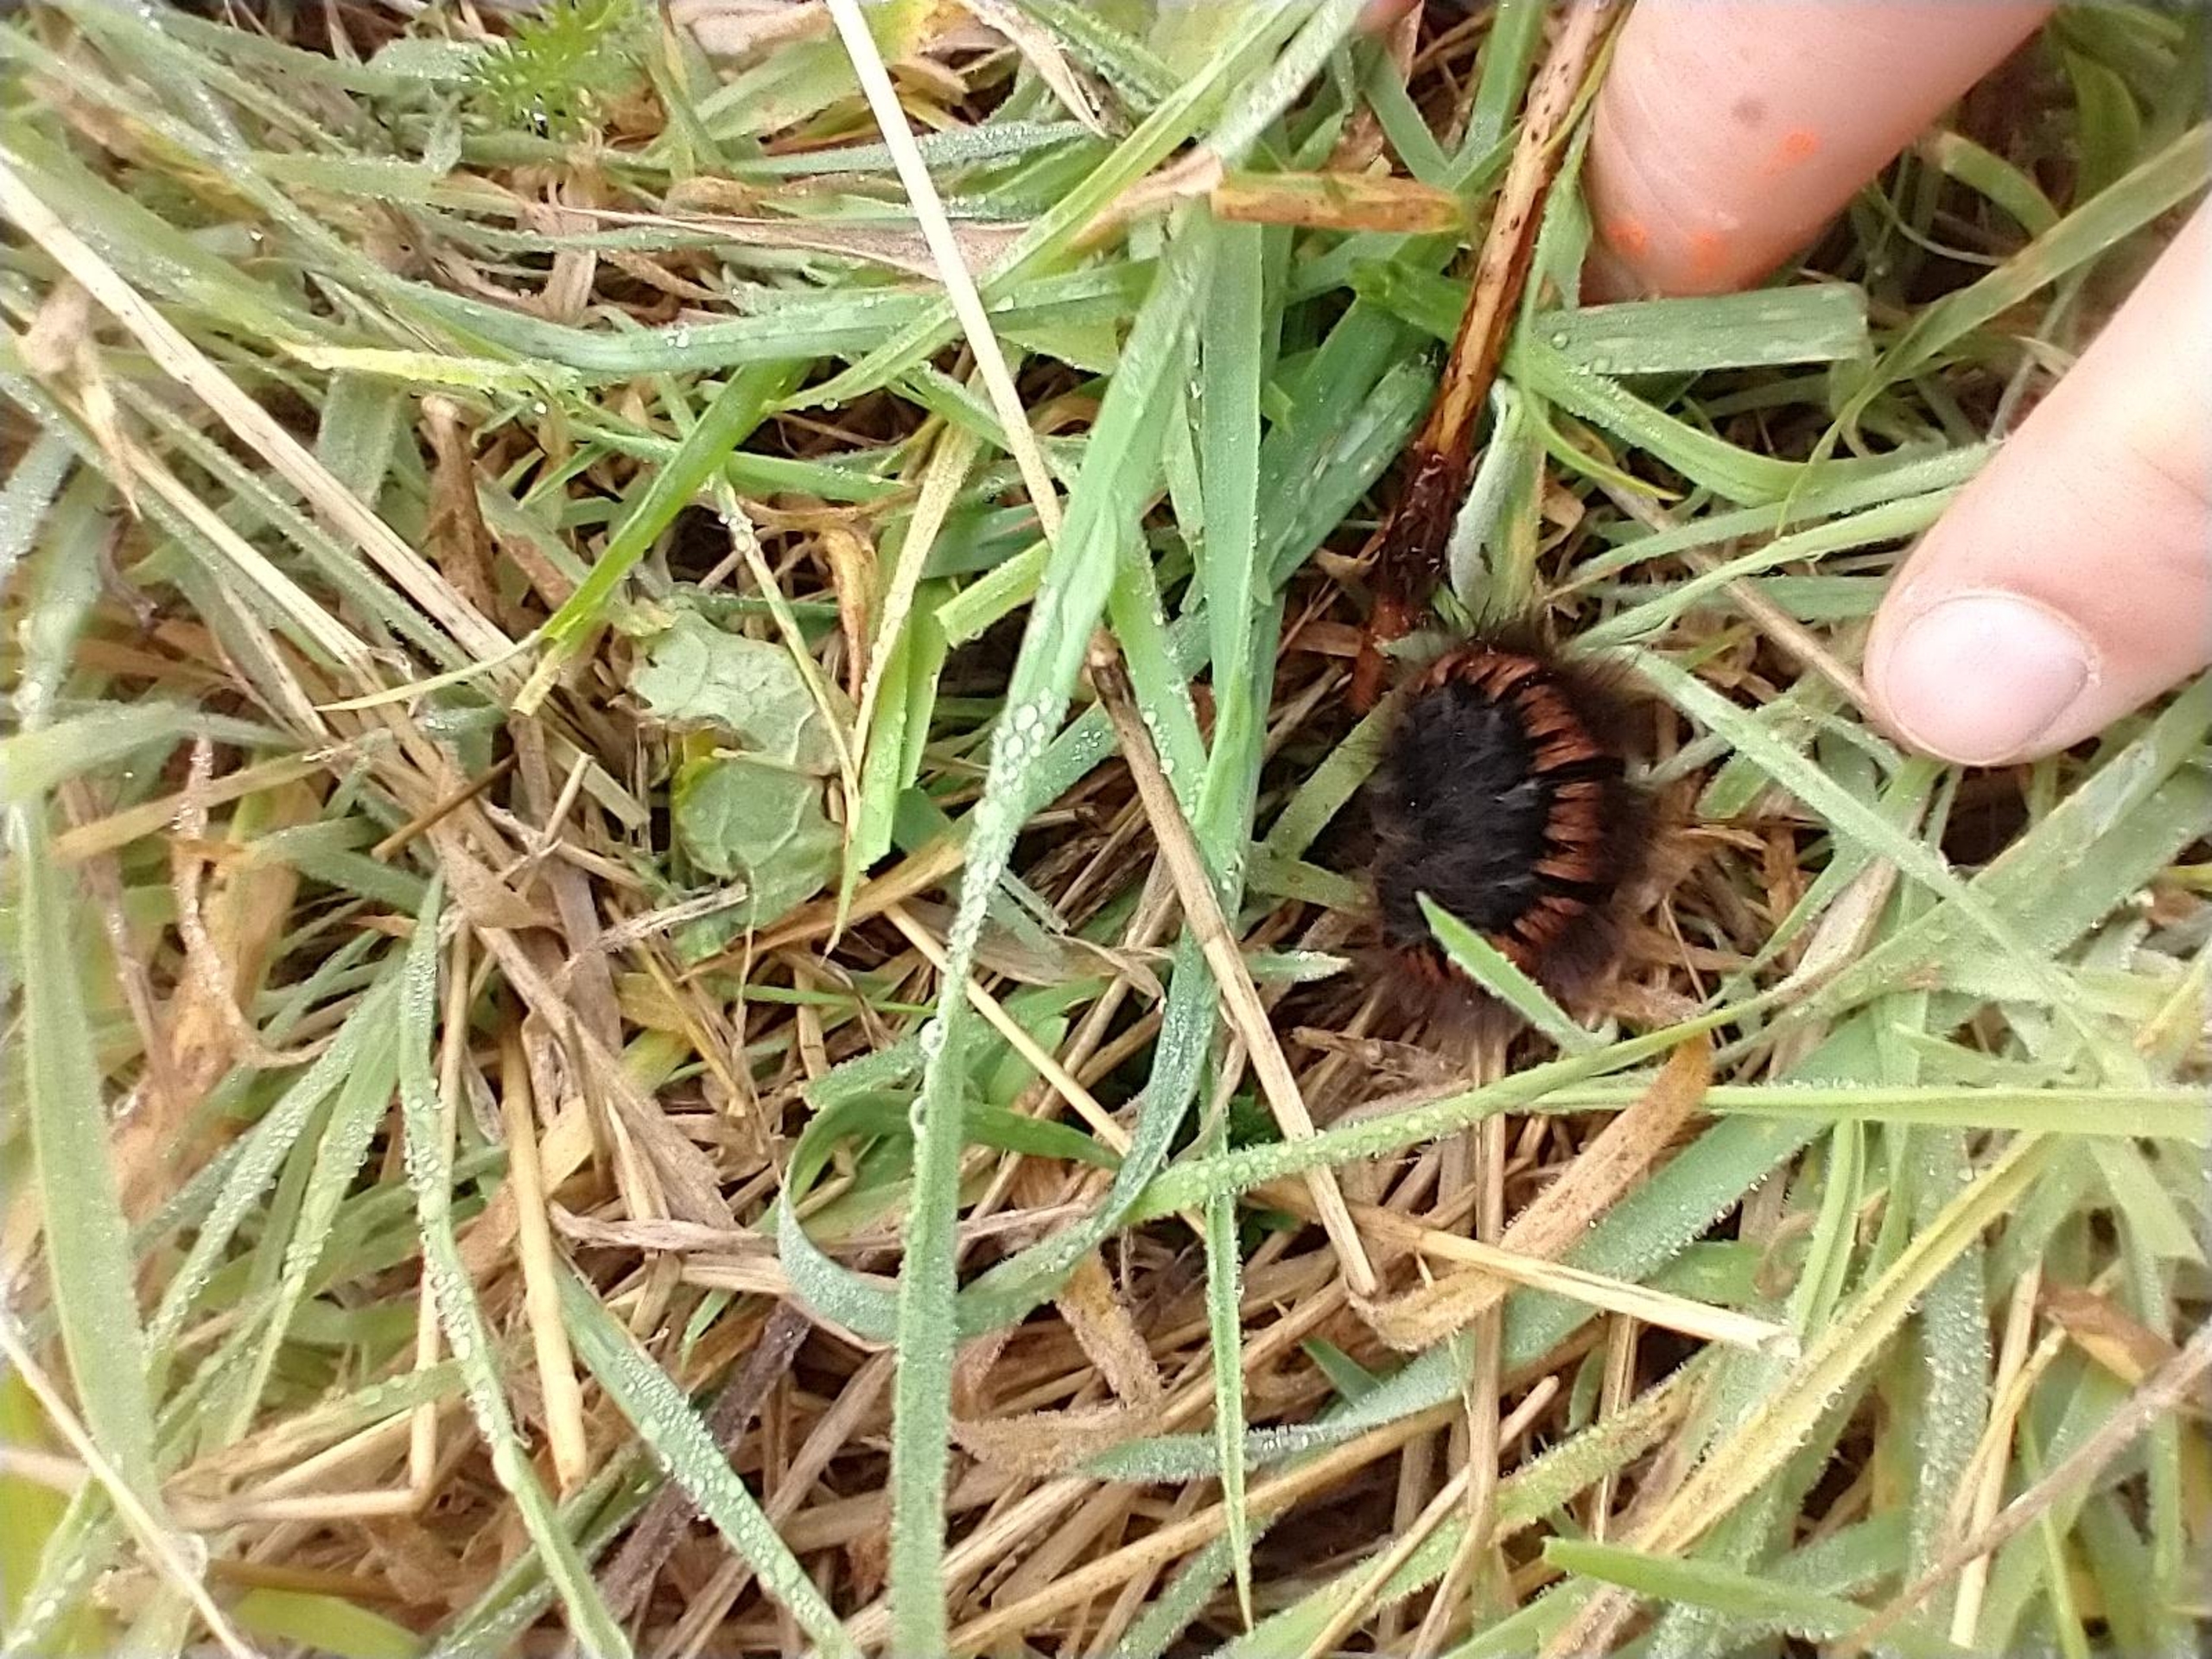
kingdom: Animalia
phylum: Arthropoda
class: Insecta
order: Lepidoptera
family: Lasiocampidae
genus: Macrothylacia
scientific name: Macrothylacia rubi
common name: Brombærspinder
